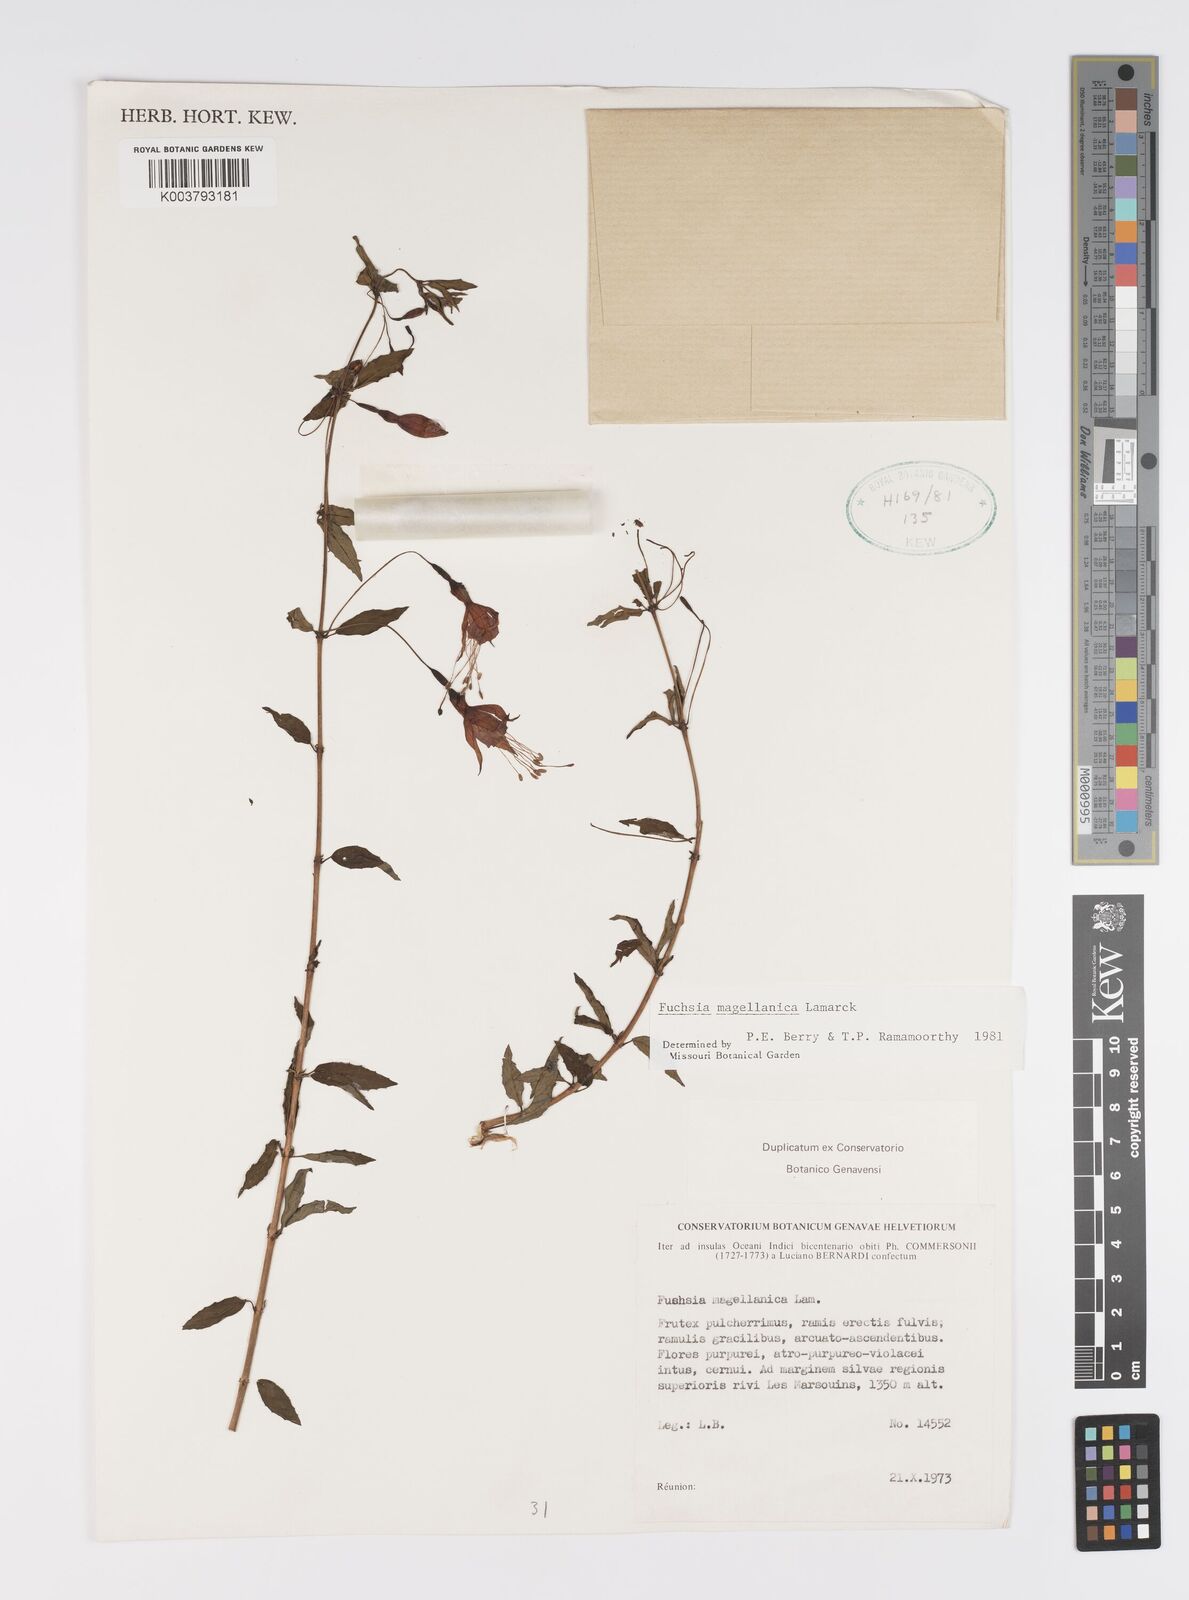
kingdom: Plantae
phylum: Tracheophyta
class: Magnoliopsida
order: Myrtales
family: Onagraceae
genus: Fuchsia
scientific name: Fuchsia
